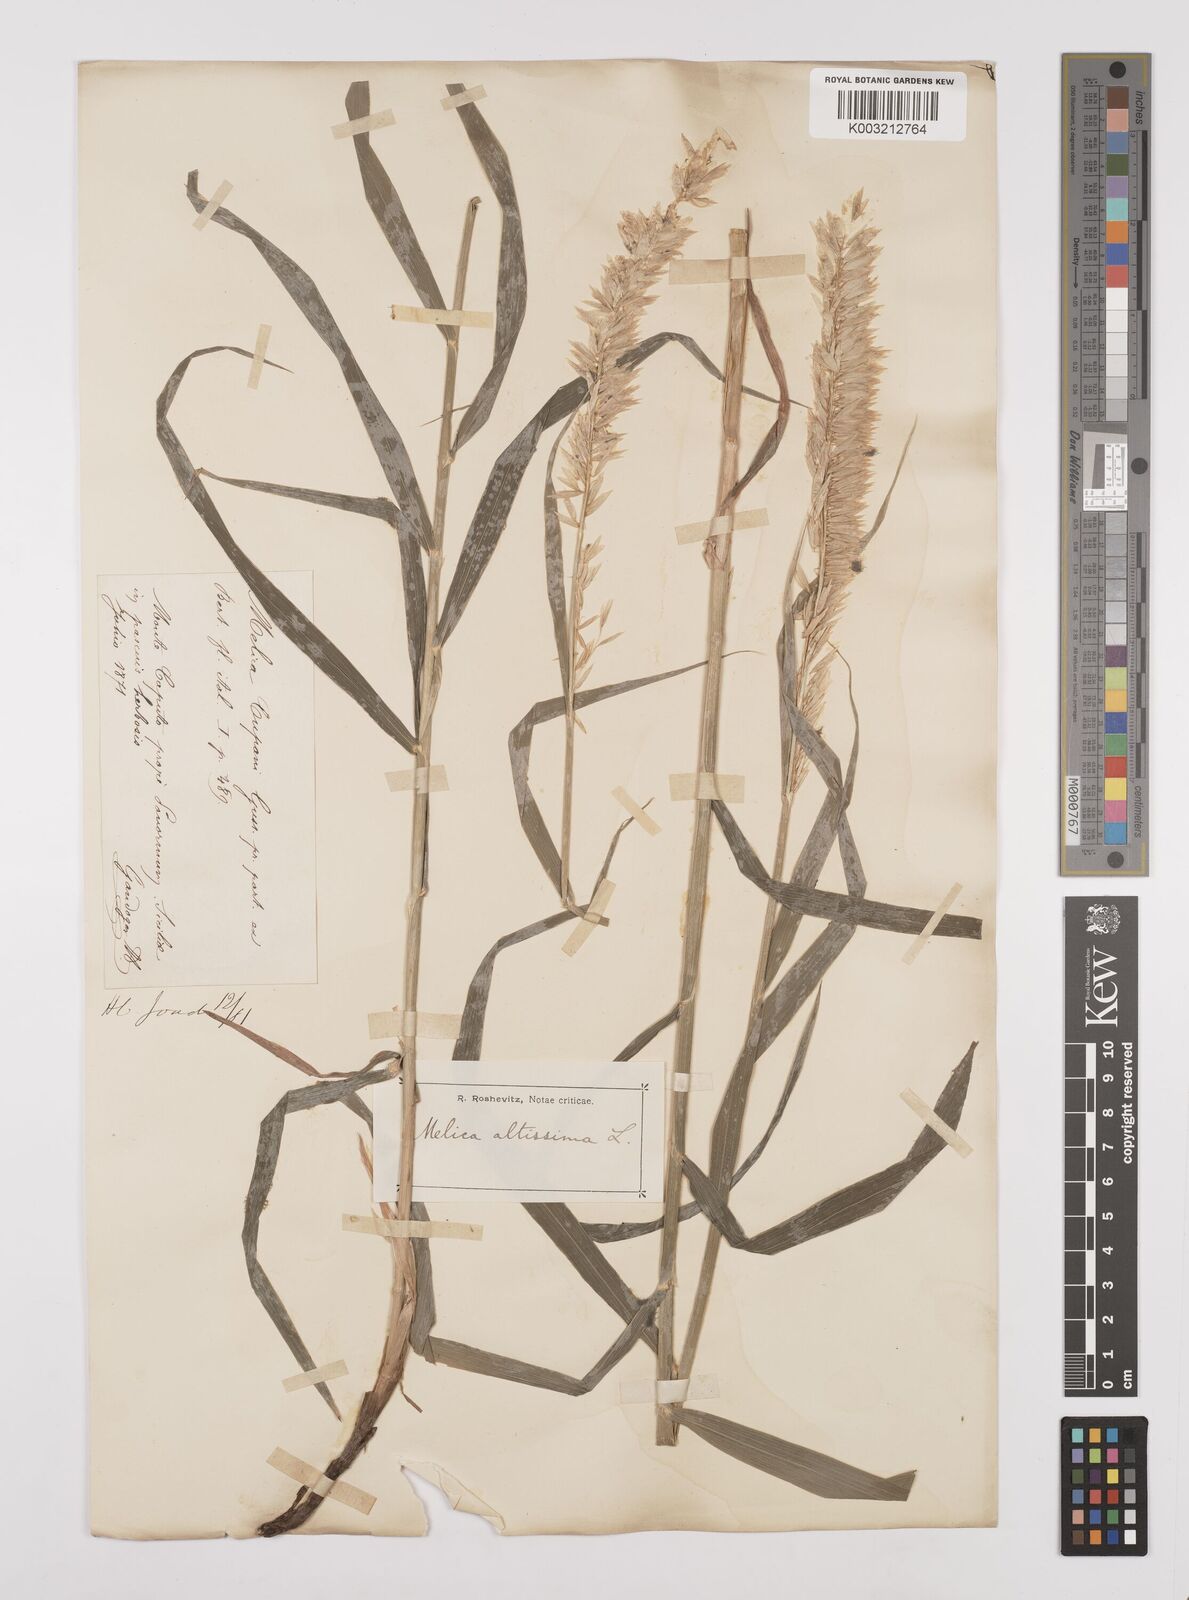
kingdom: Plantae
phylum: Tracheophyta
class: Liliopsida
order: Poales
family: Poaceae
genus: Melica
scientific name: Melica altissima
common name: Siberian melicgrass
